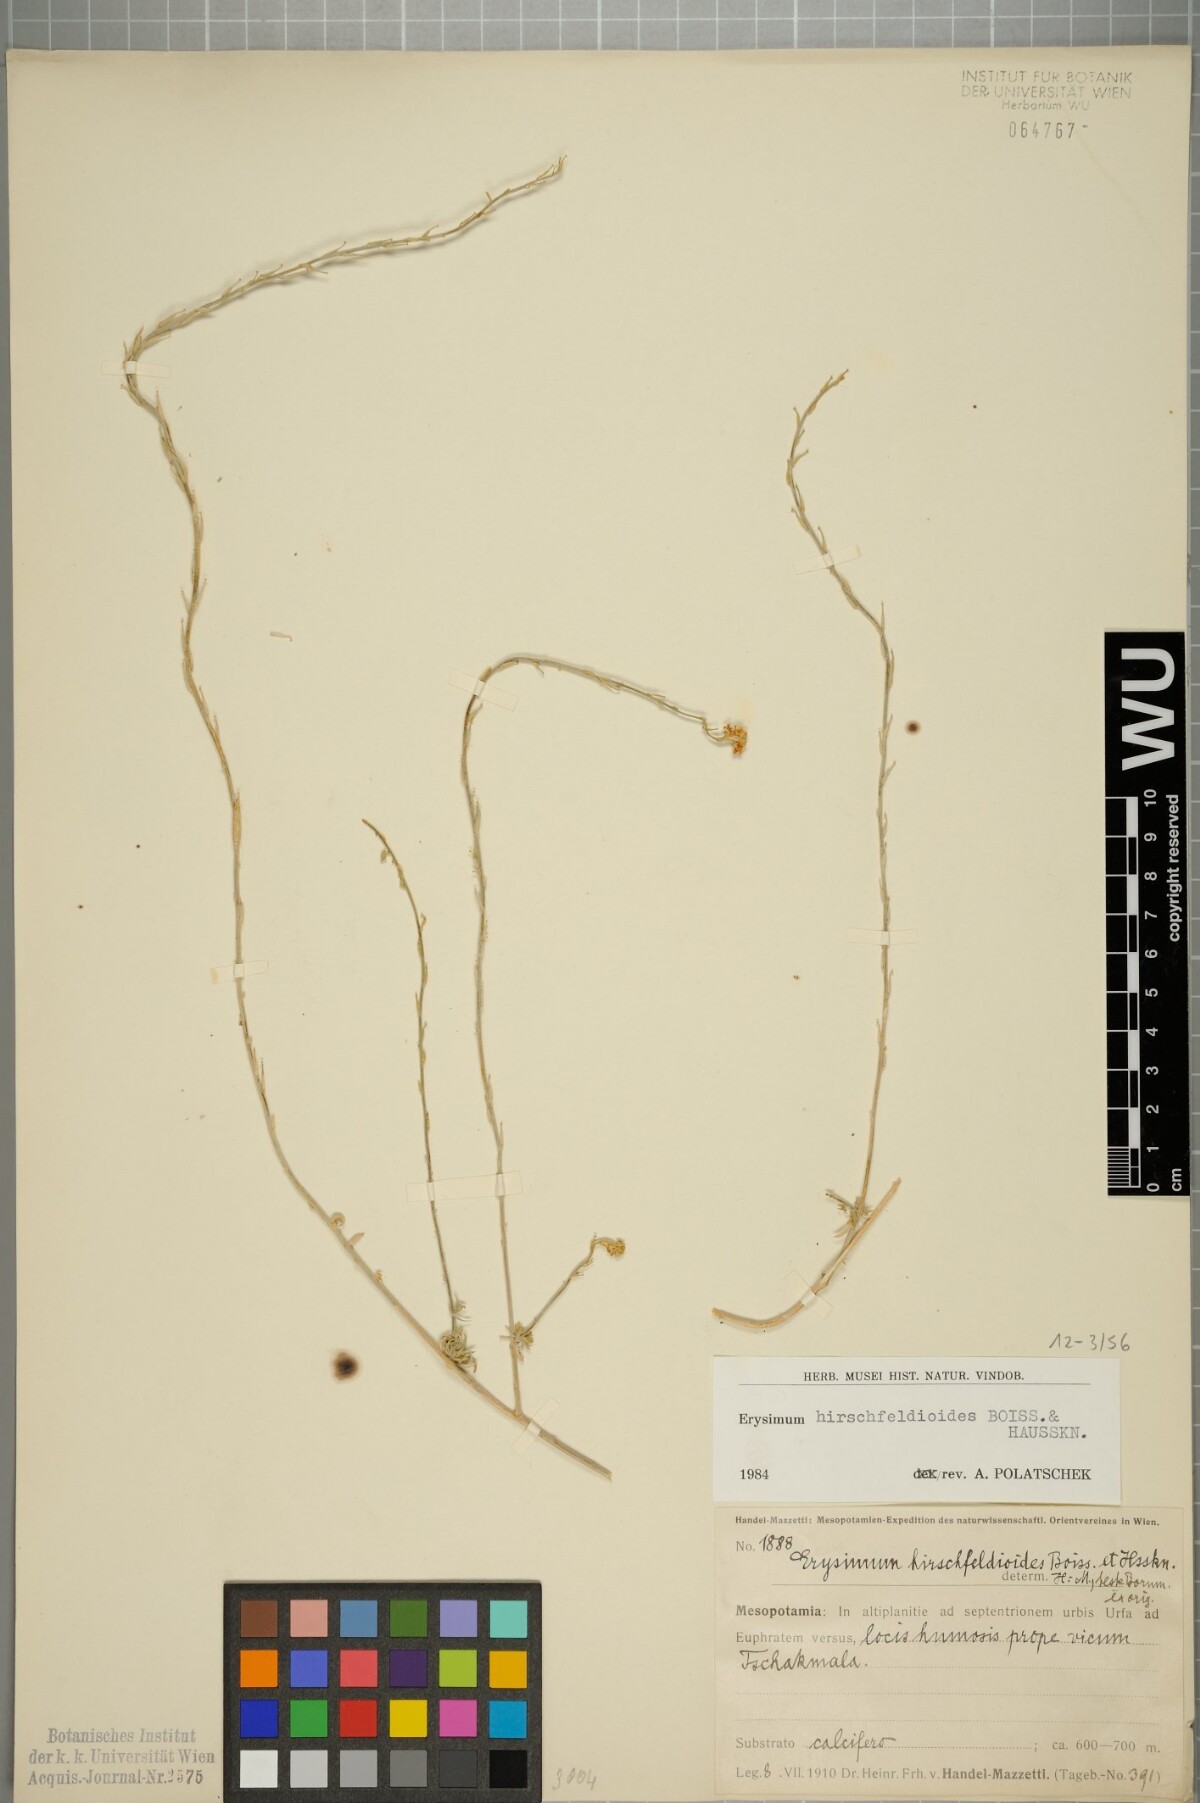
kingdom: Plantae
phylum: Tracheophyta
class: Magnoliopsida
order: Brassicales
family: Brassicaceae
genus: Erysimum
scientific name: Erysimum hirschfeldioides
